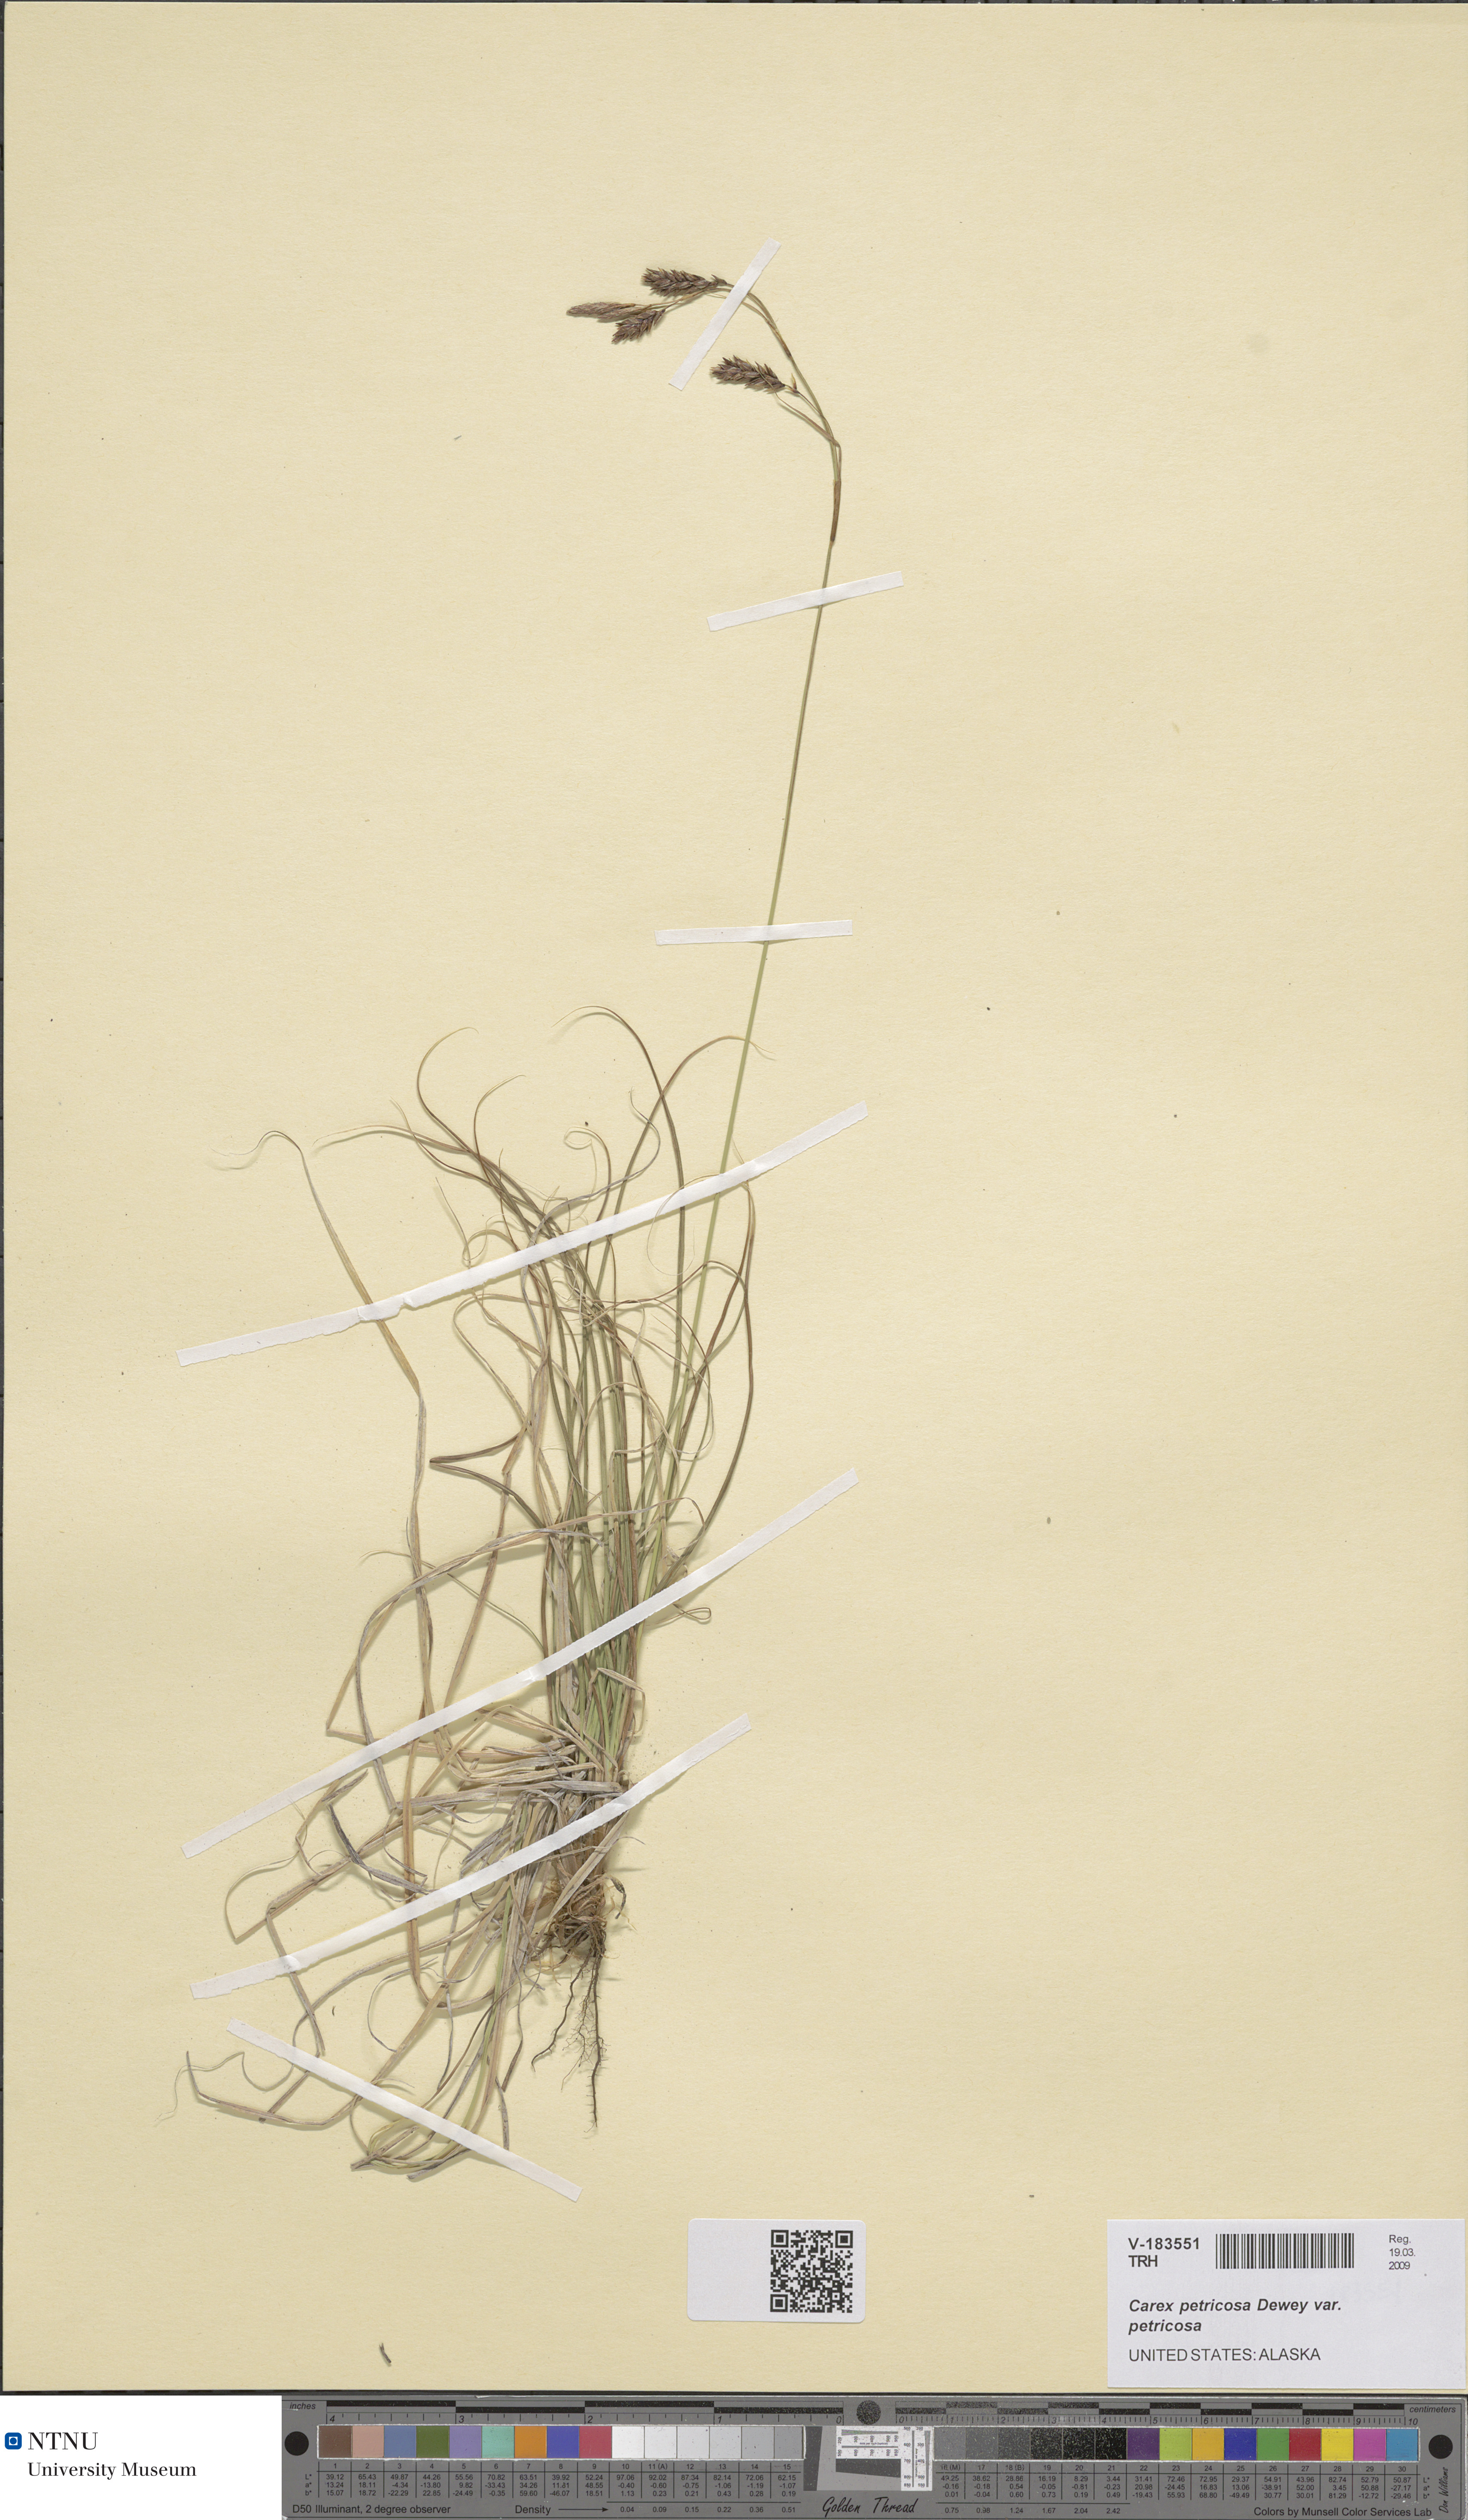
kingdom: Plantae
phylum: Tracheophyta
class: Liliopsida
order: Poales
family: Cyperaceae
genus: Carex
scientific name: Carex petricosa
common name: Rock sedge
